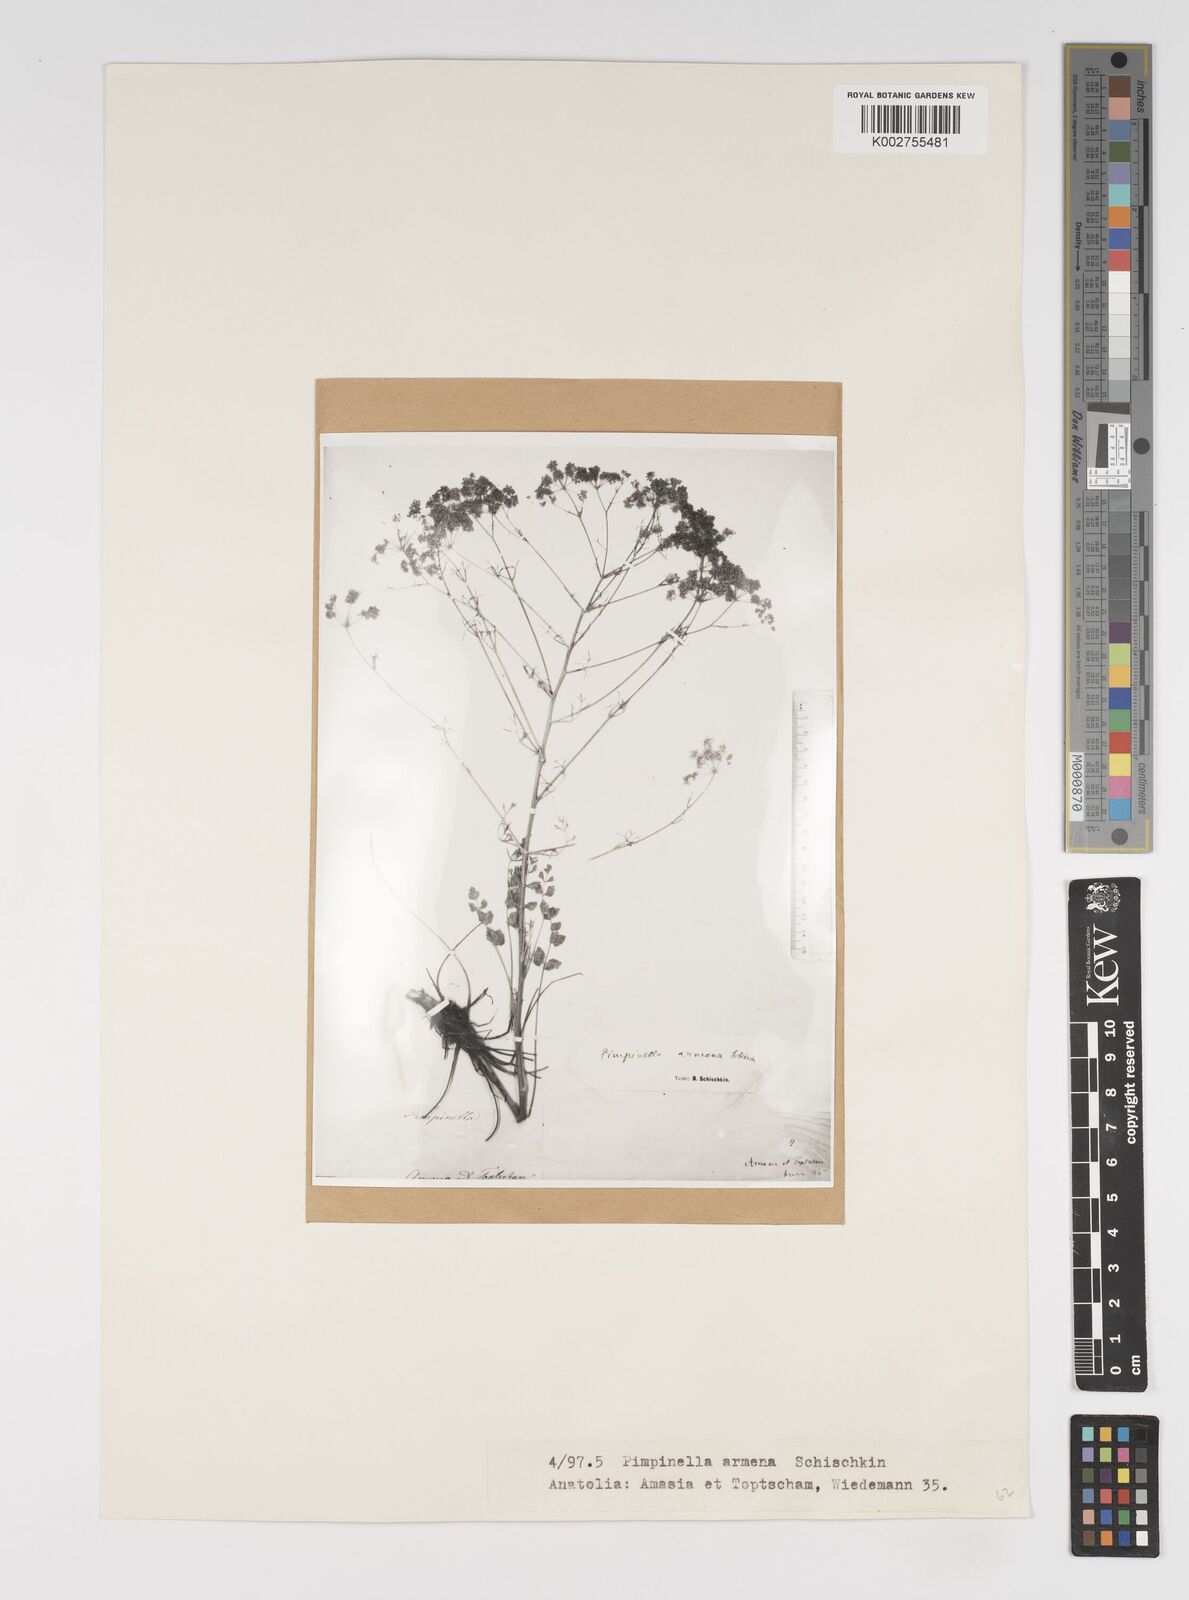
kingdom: Plantae
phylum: Tracheophyta
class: Magnoliopsida
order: Apiales
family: Apiaceae
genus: Pimpinella
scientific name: Pimpinella aromatica
